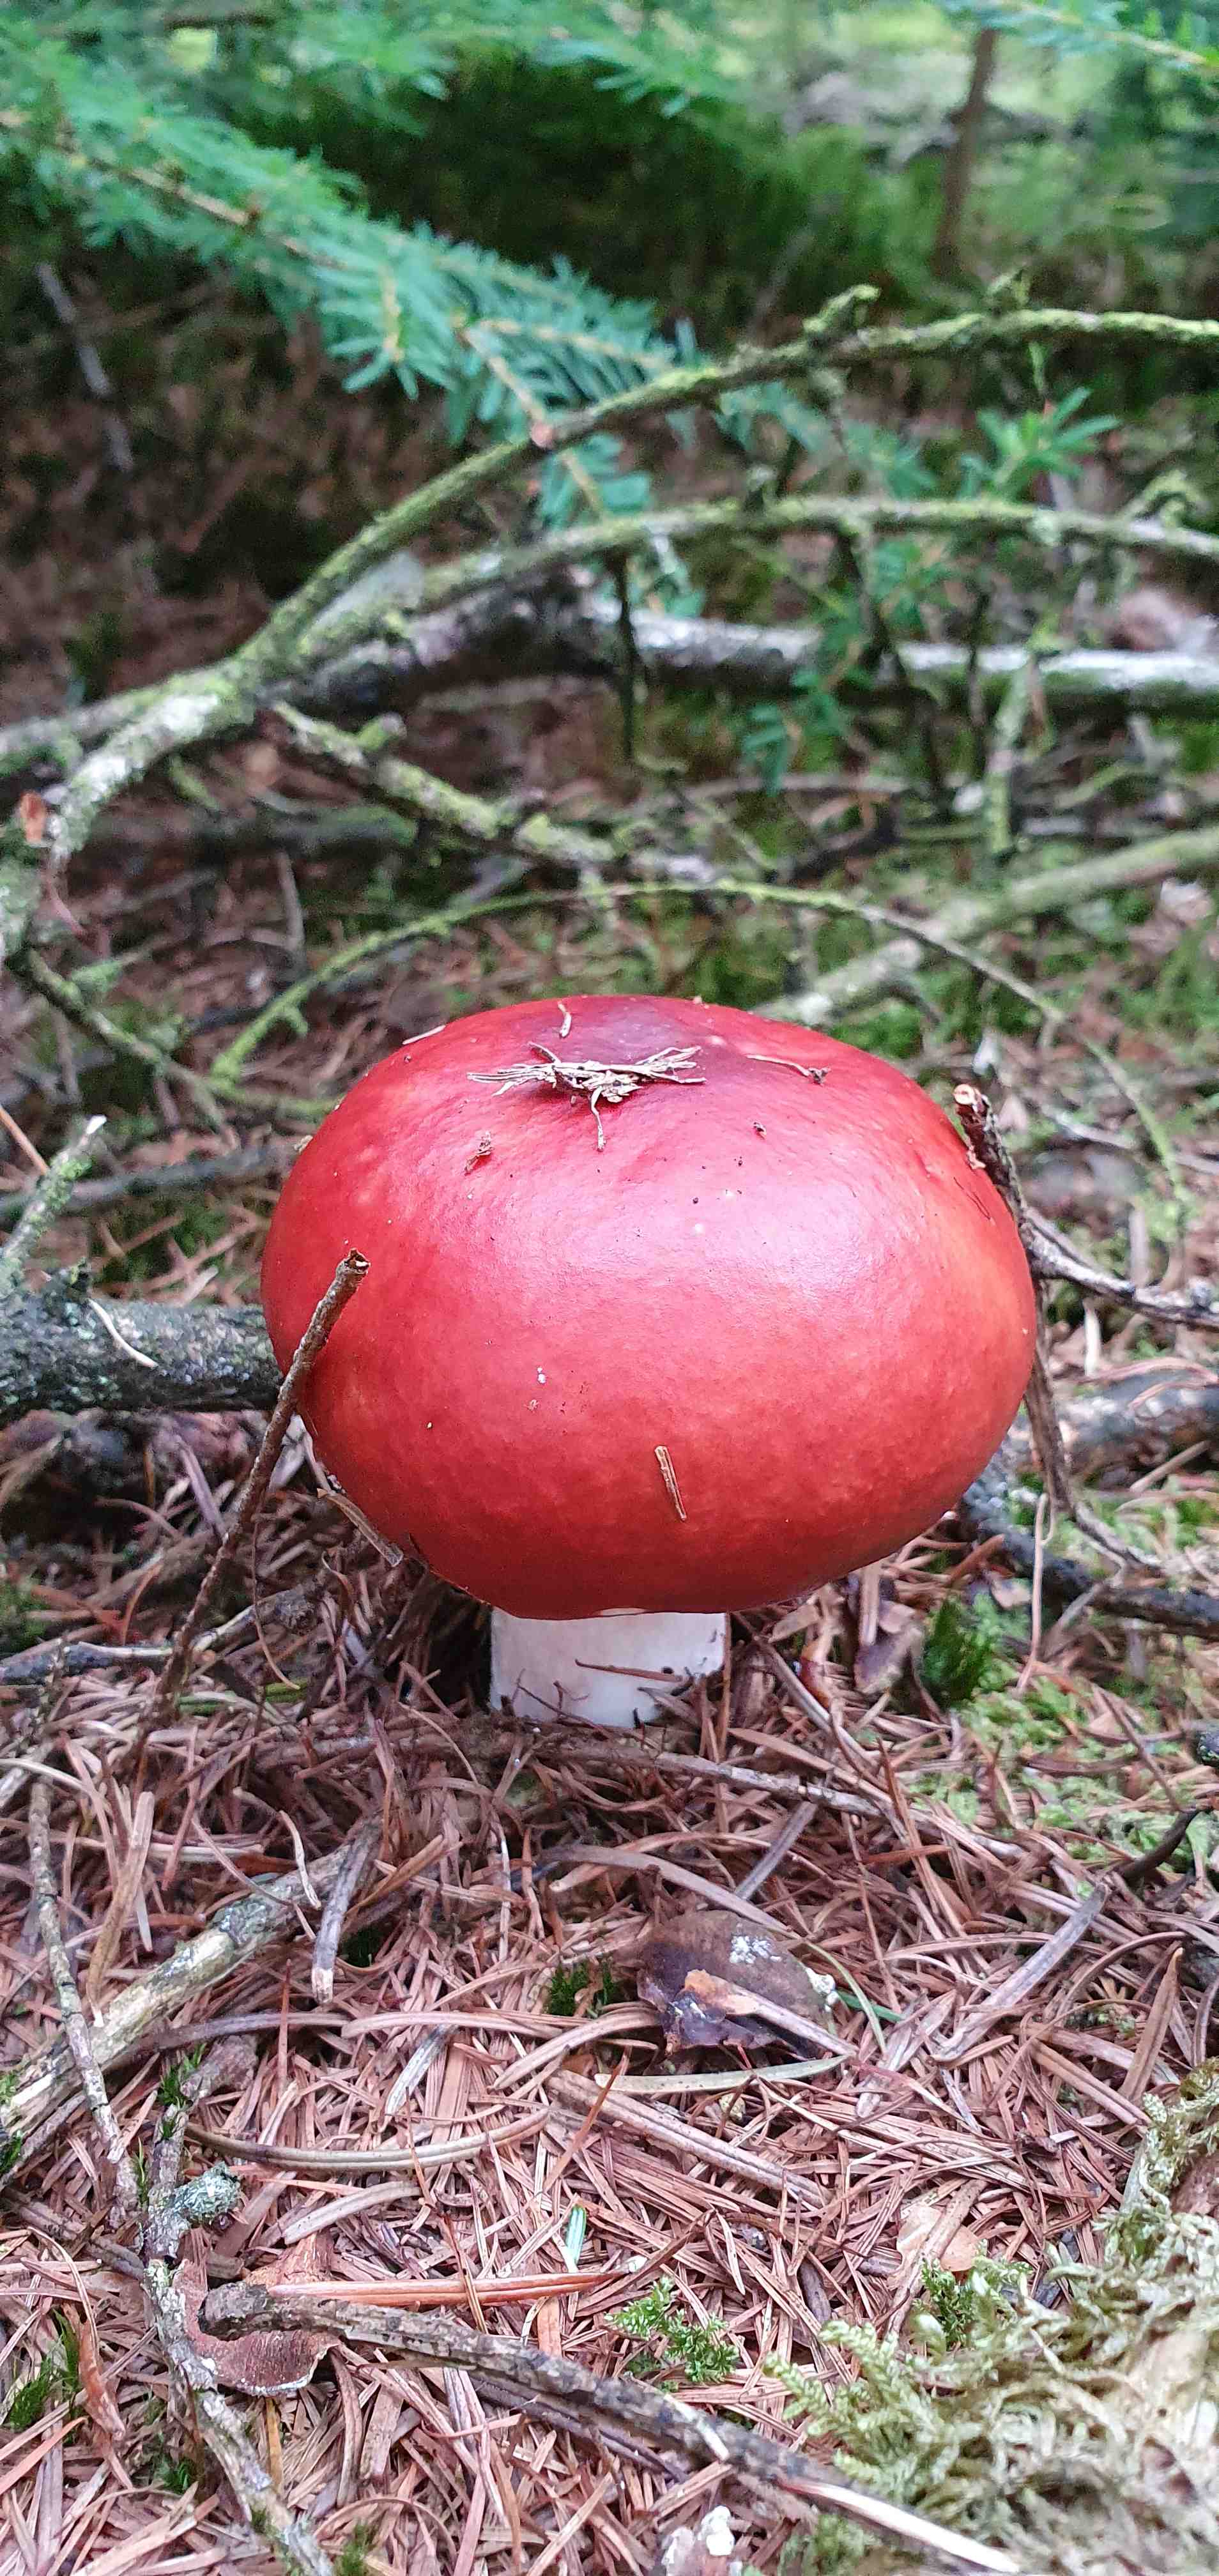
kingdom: Fungi
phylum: Basidiomycota
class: Agaricomycetes
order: Russulales
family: Russulaceae
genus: Russula
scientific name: Russula paludosa
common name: prægtig skørhat
